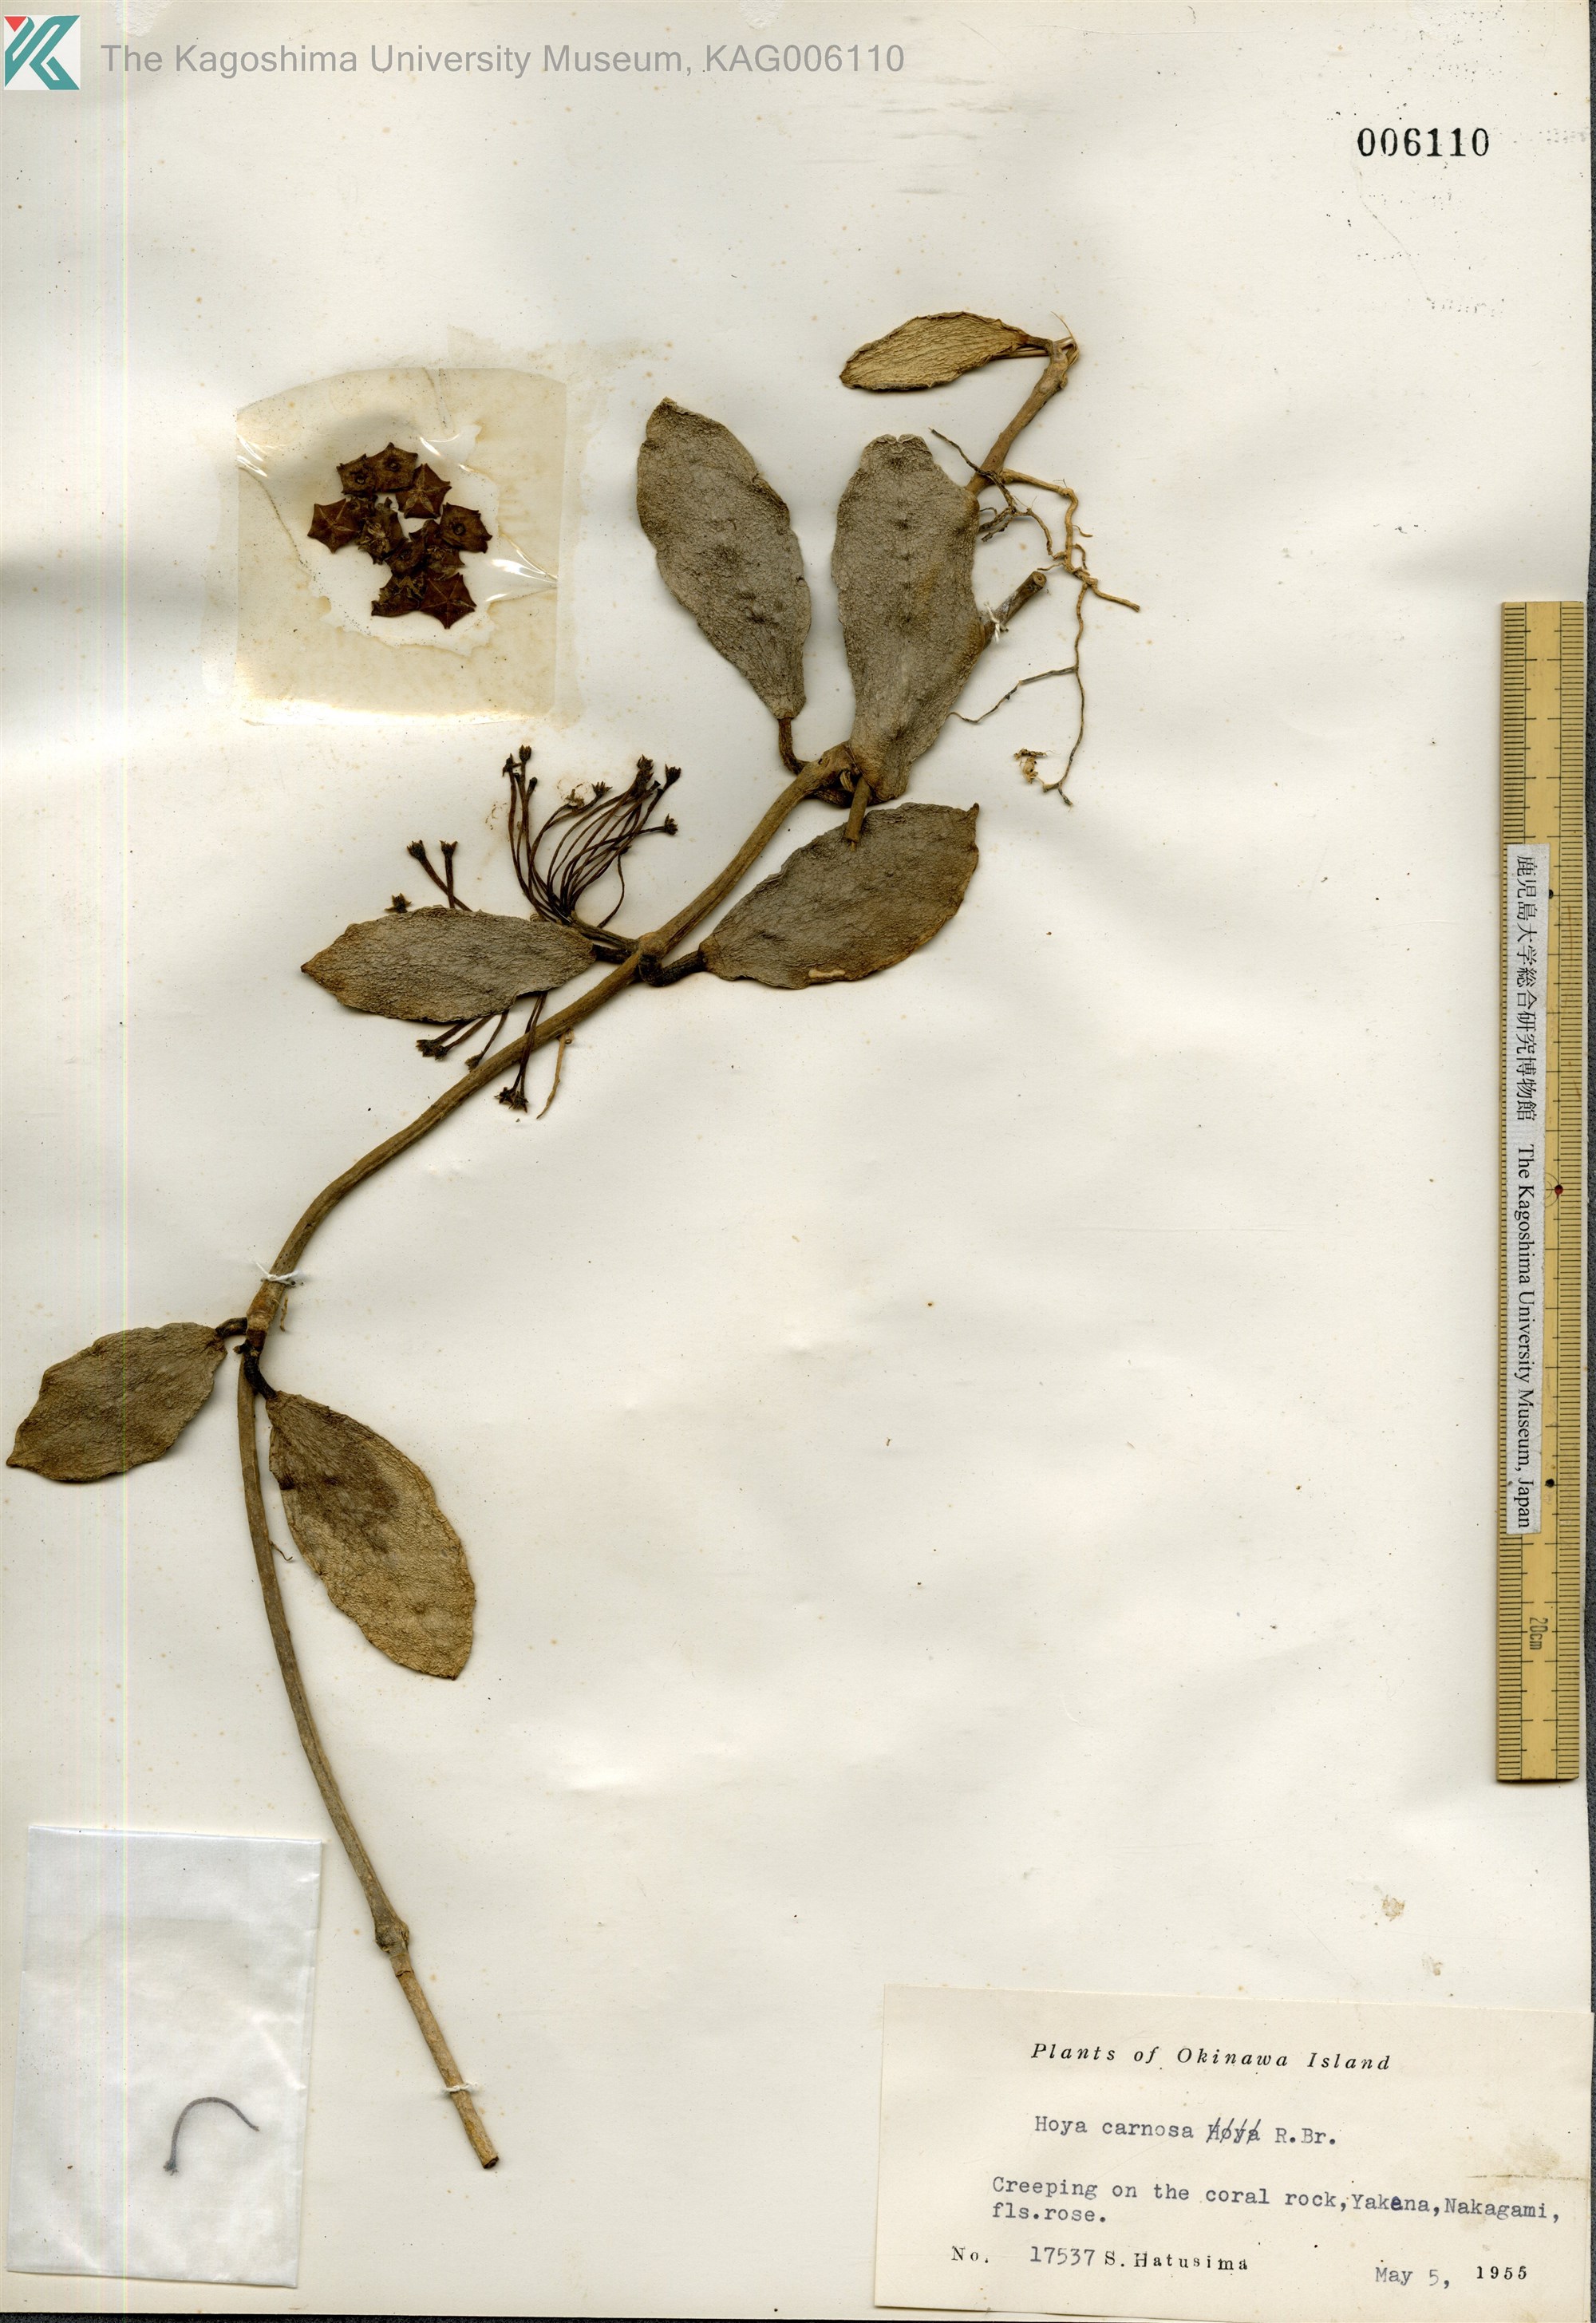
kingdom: Plantae
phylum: Tracheophyta
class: Magnoliopsida
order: Gentianales
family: Apocynaceae
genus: Hoya
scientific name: Hoya carnosa
